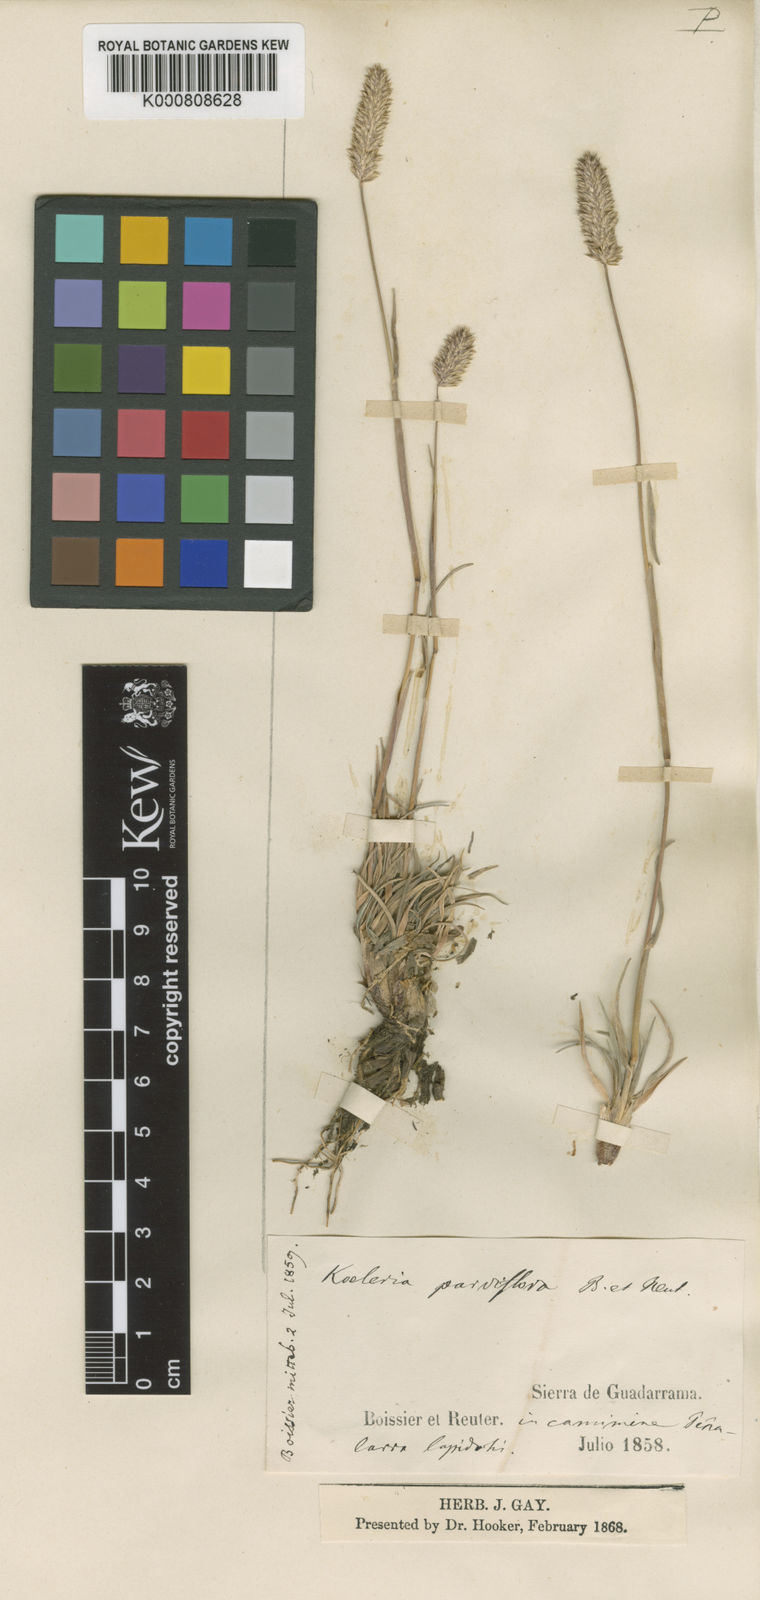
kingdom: Plantae
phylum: Tracheophyta
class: Liliopsida
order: Poales
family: Poaceae
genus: Koeleria
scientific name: Koeleria caudata
